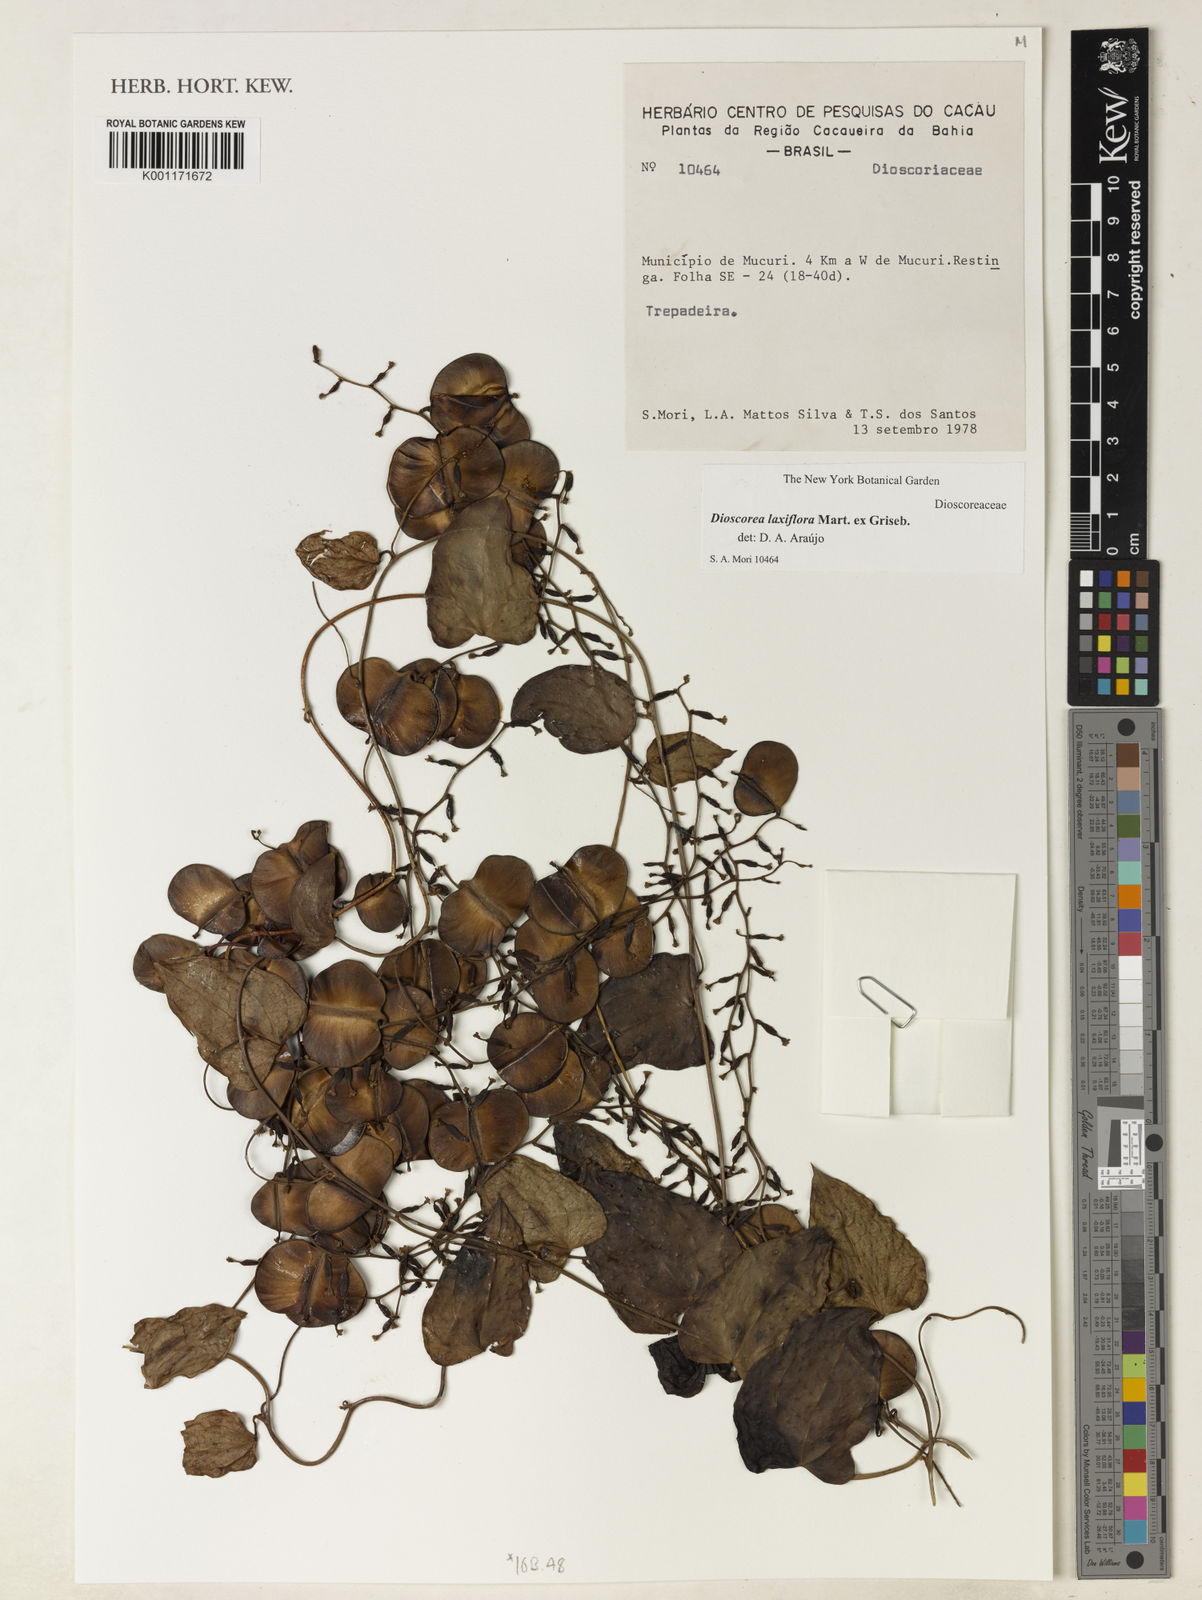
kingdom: Plantae
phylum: Tracheophyta
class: Liliopsida
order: Dioscoreales
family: Dioscoreaceae
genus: Dioscorea
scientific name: Dioscorea laxiflora
